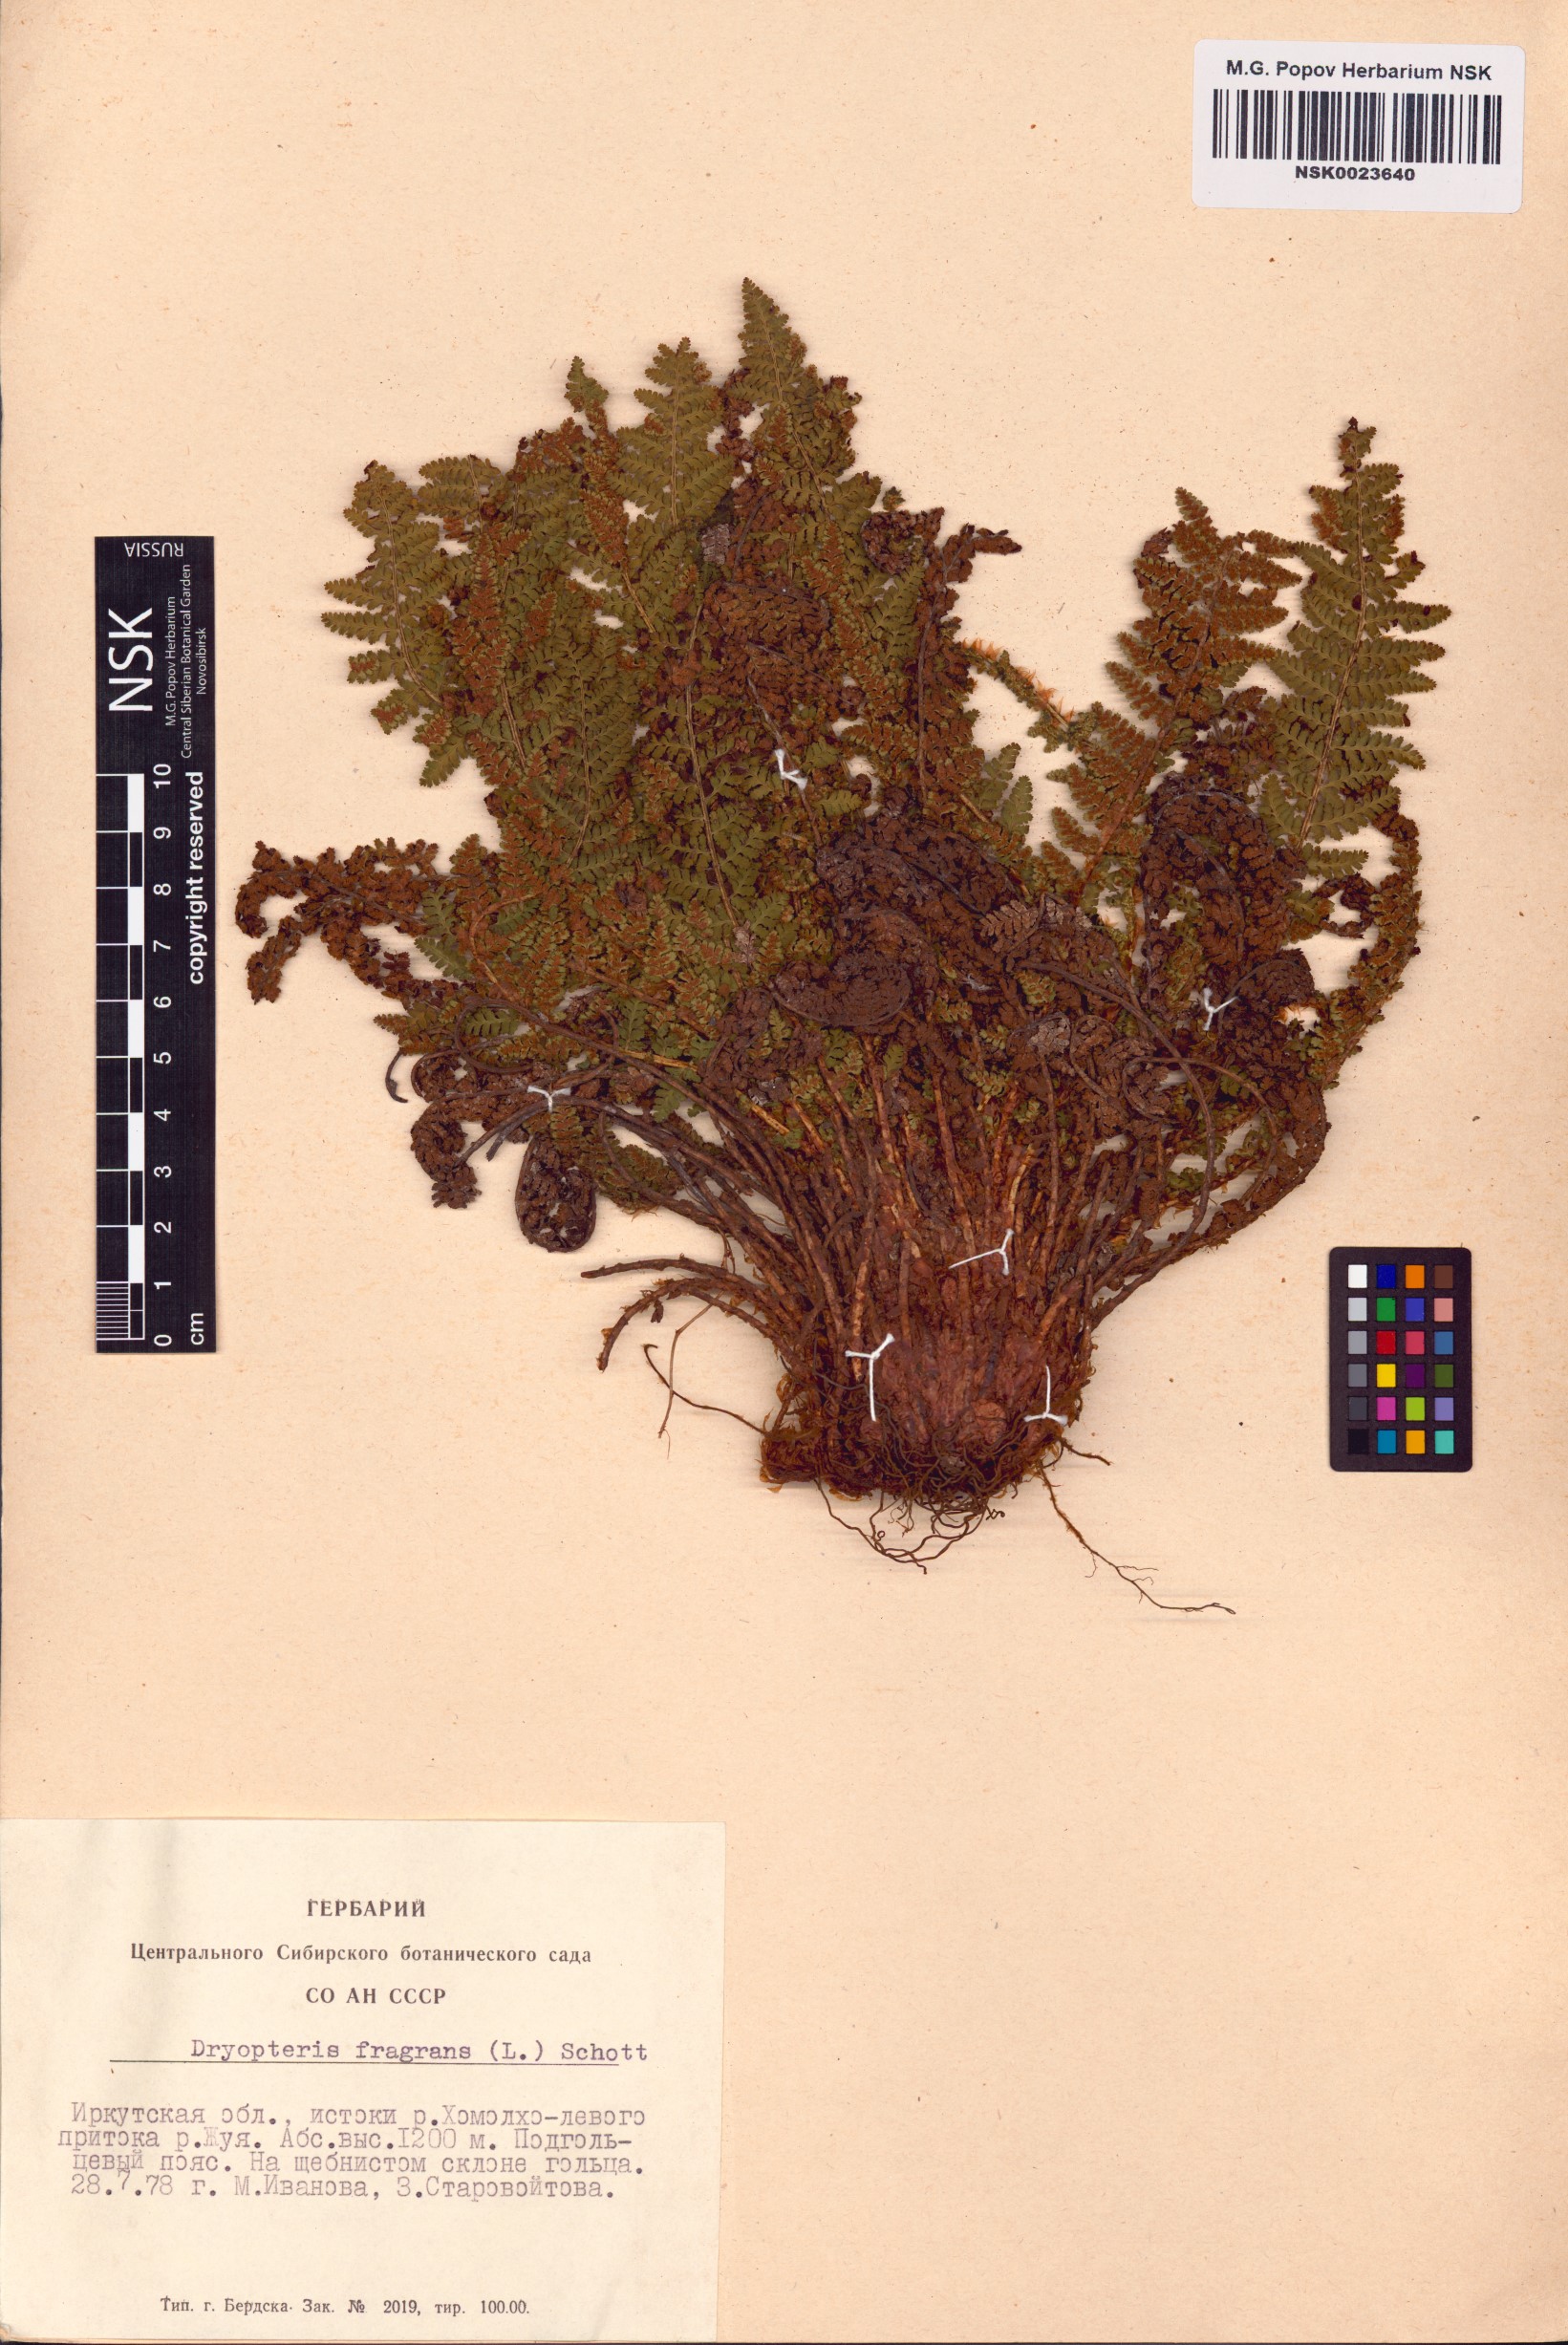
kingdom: Plantae
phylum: Tracheophyta
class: Polypodiopsida
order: Polypodiales
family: Dryopteridaceae
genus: Dryopteris
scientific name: Dryopteris fragrans
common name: Fragrant wood fern
